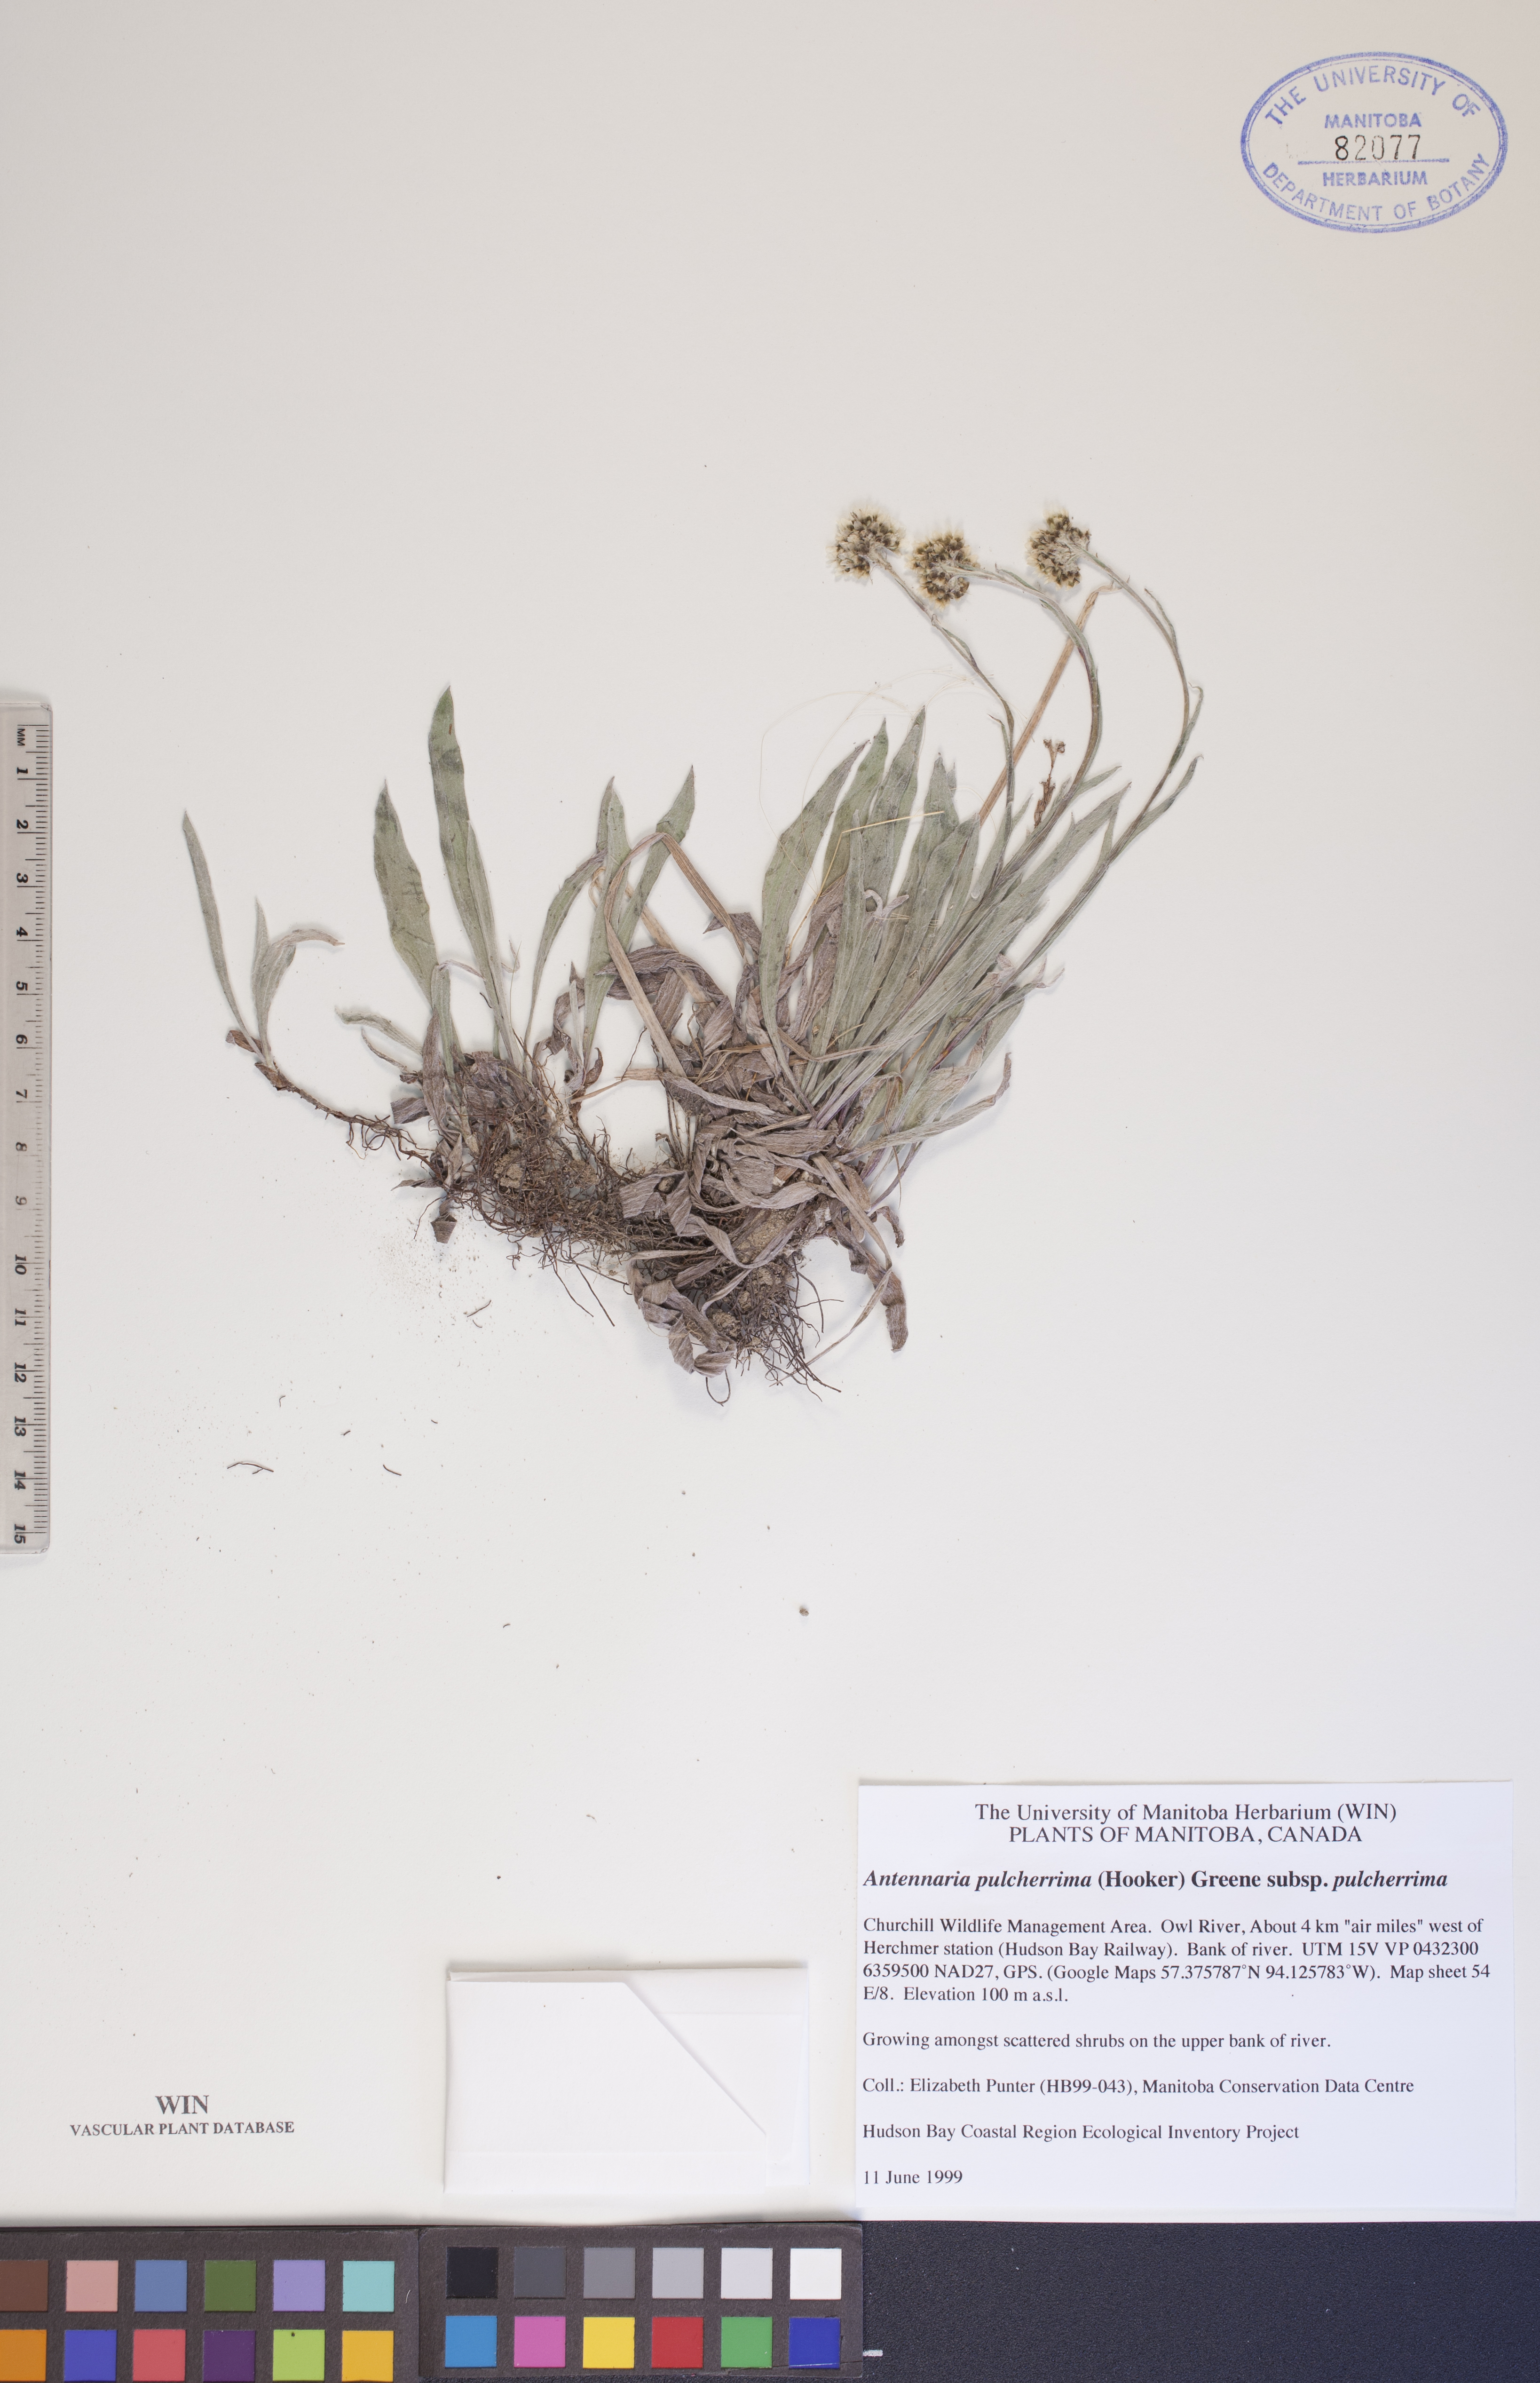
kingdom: Plantae
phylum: Tracheophyta
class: Magnoliopsida
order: Asterales
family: Asteraceae
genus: Antennaria
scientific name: Antennaria pulcherrima
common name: Handsome pussytoes
